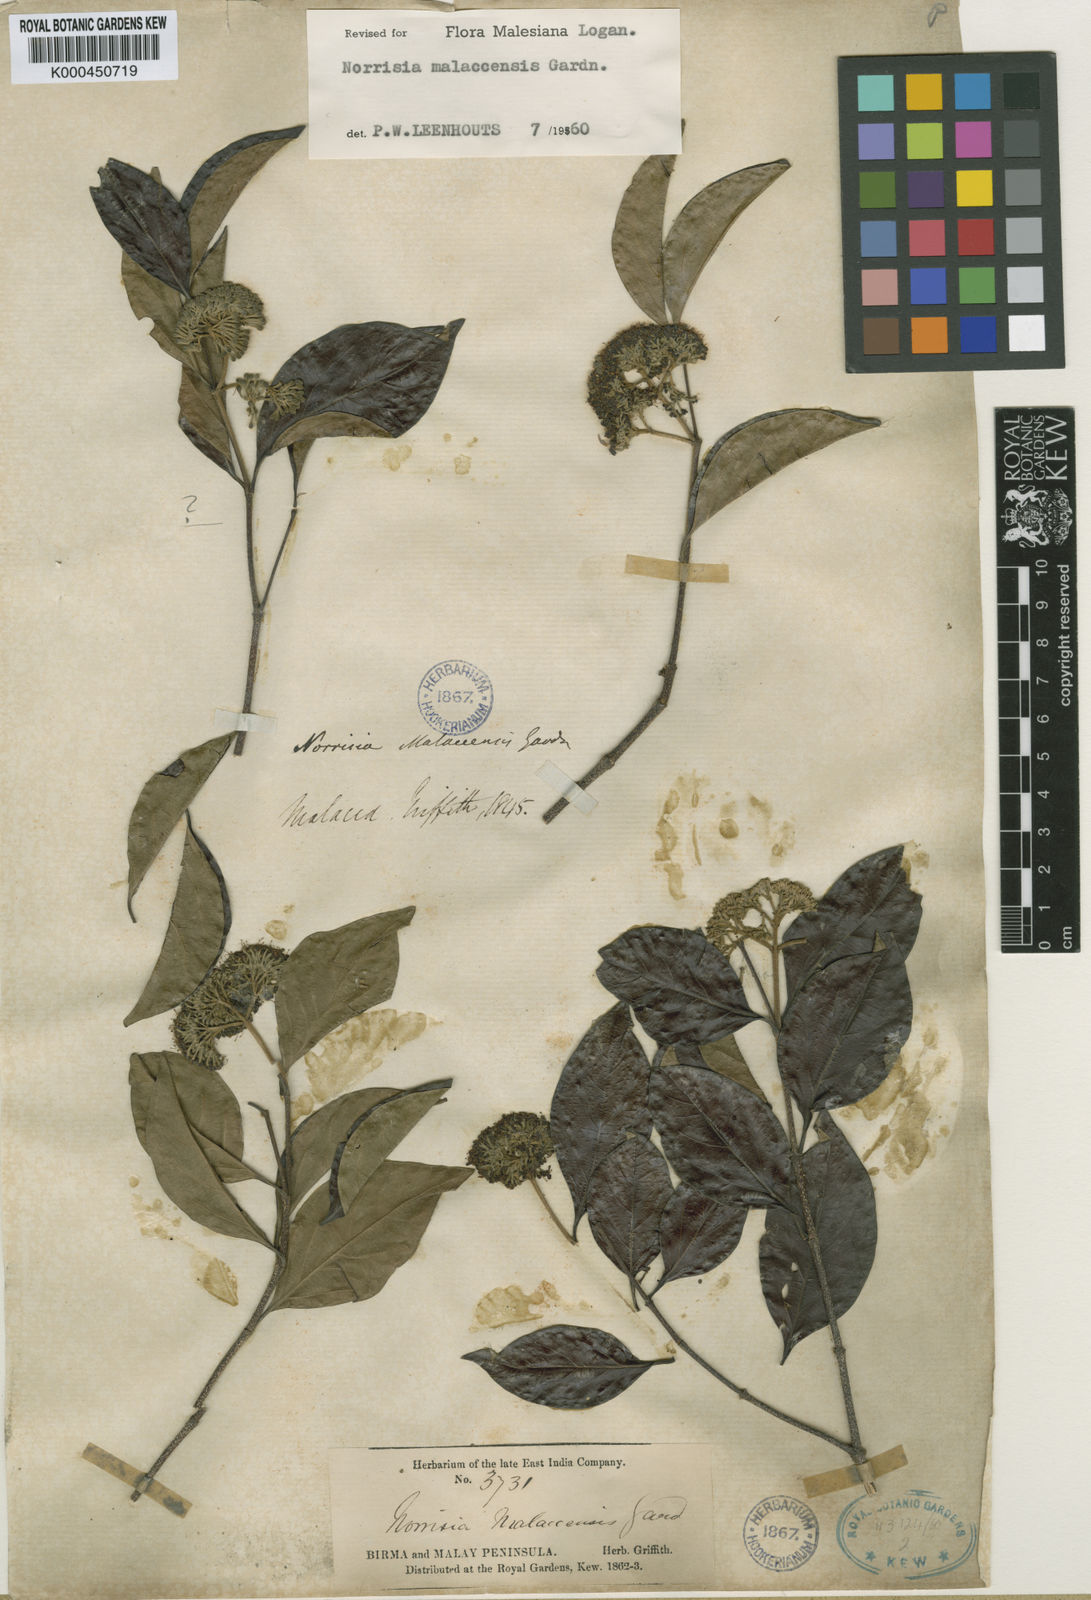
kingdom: Plantae
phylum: Tracheophyta
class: Magnoliopsida
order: Gentianales
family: Loganiaceae
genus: Norrisia
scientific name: Norrisia malaccensis
